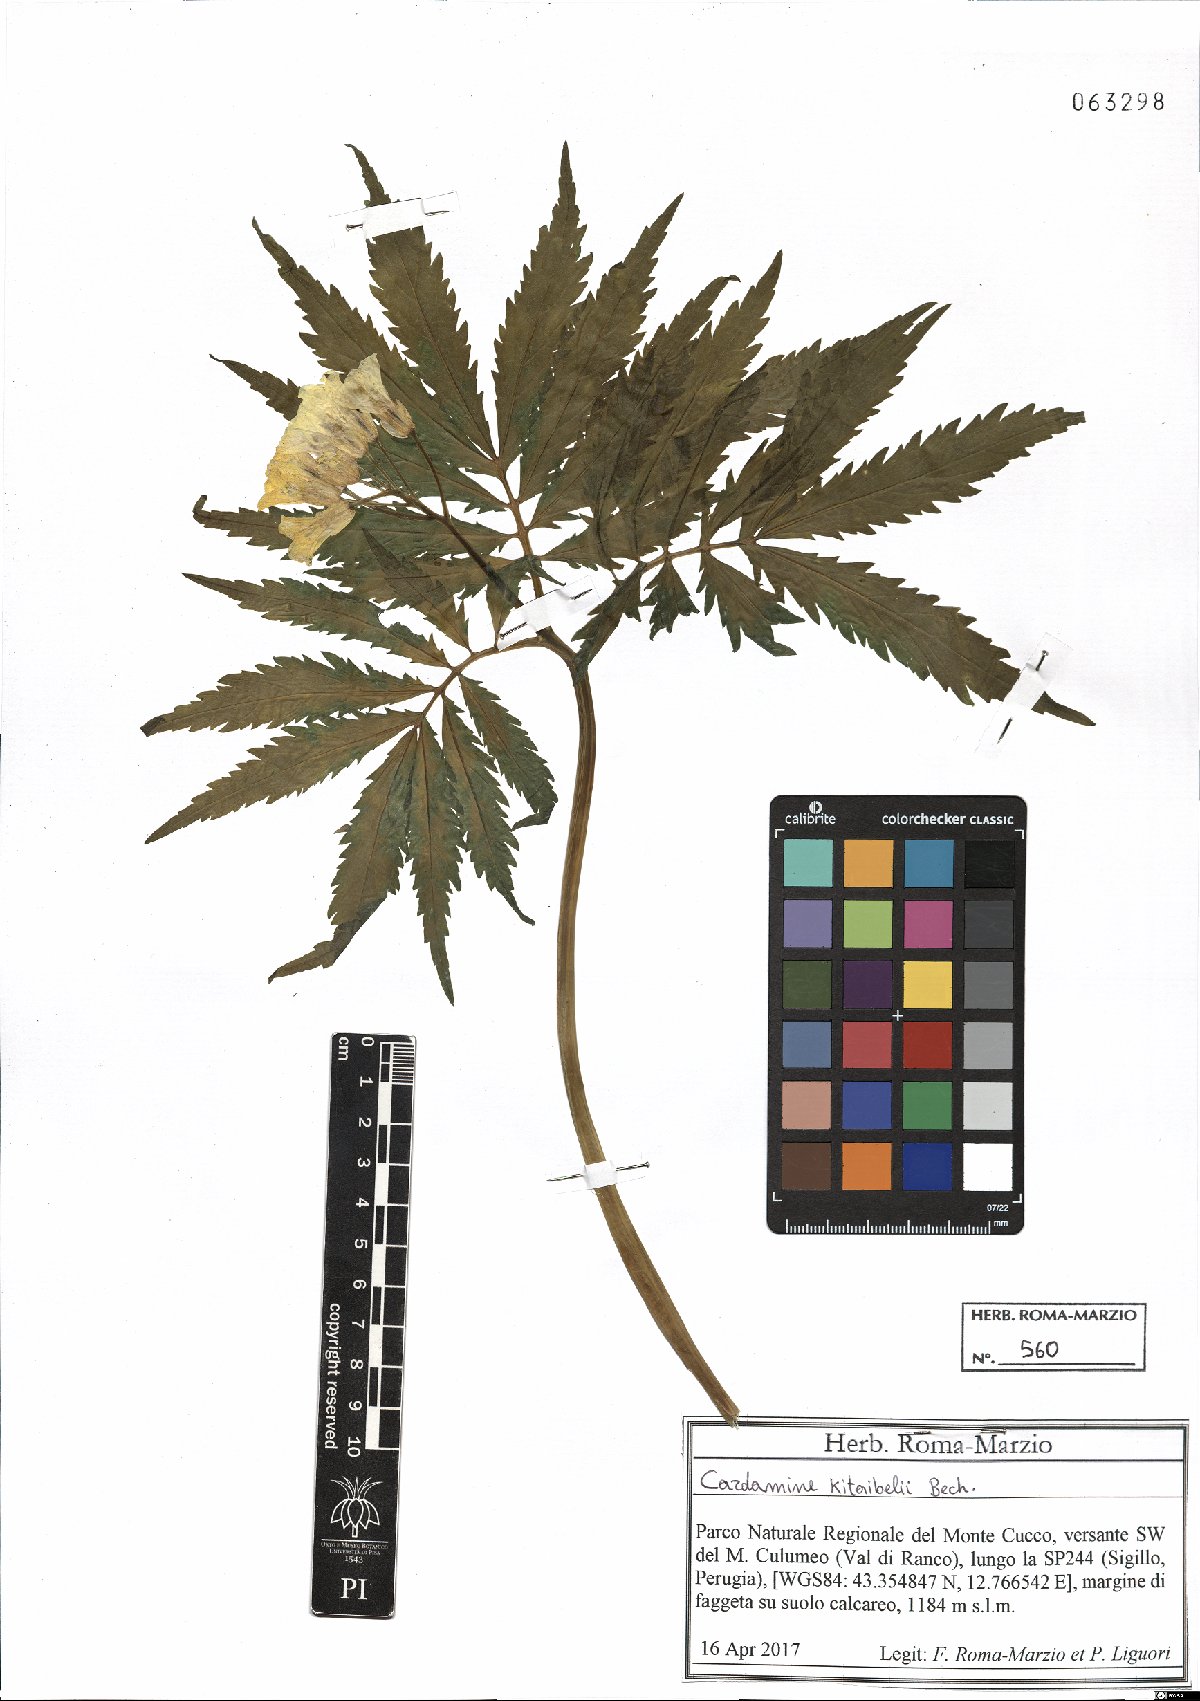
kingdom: Plantae
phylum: Tracheophyta
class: Magnoliopsida
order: Brassicales
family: Brassicaceae
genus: Cardamine
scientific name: Cardamine kitaibelii
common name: Kitaibel's bitter-cress
